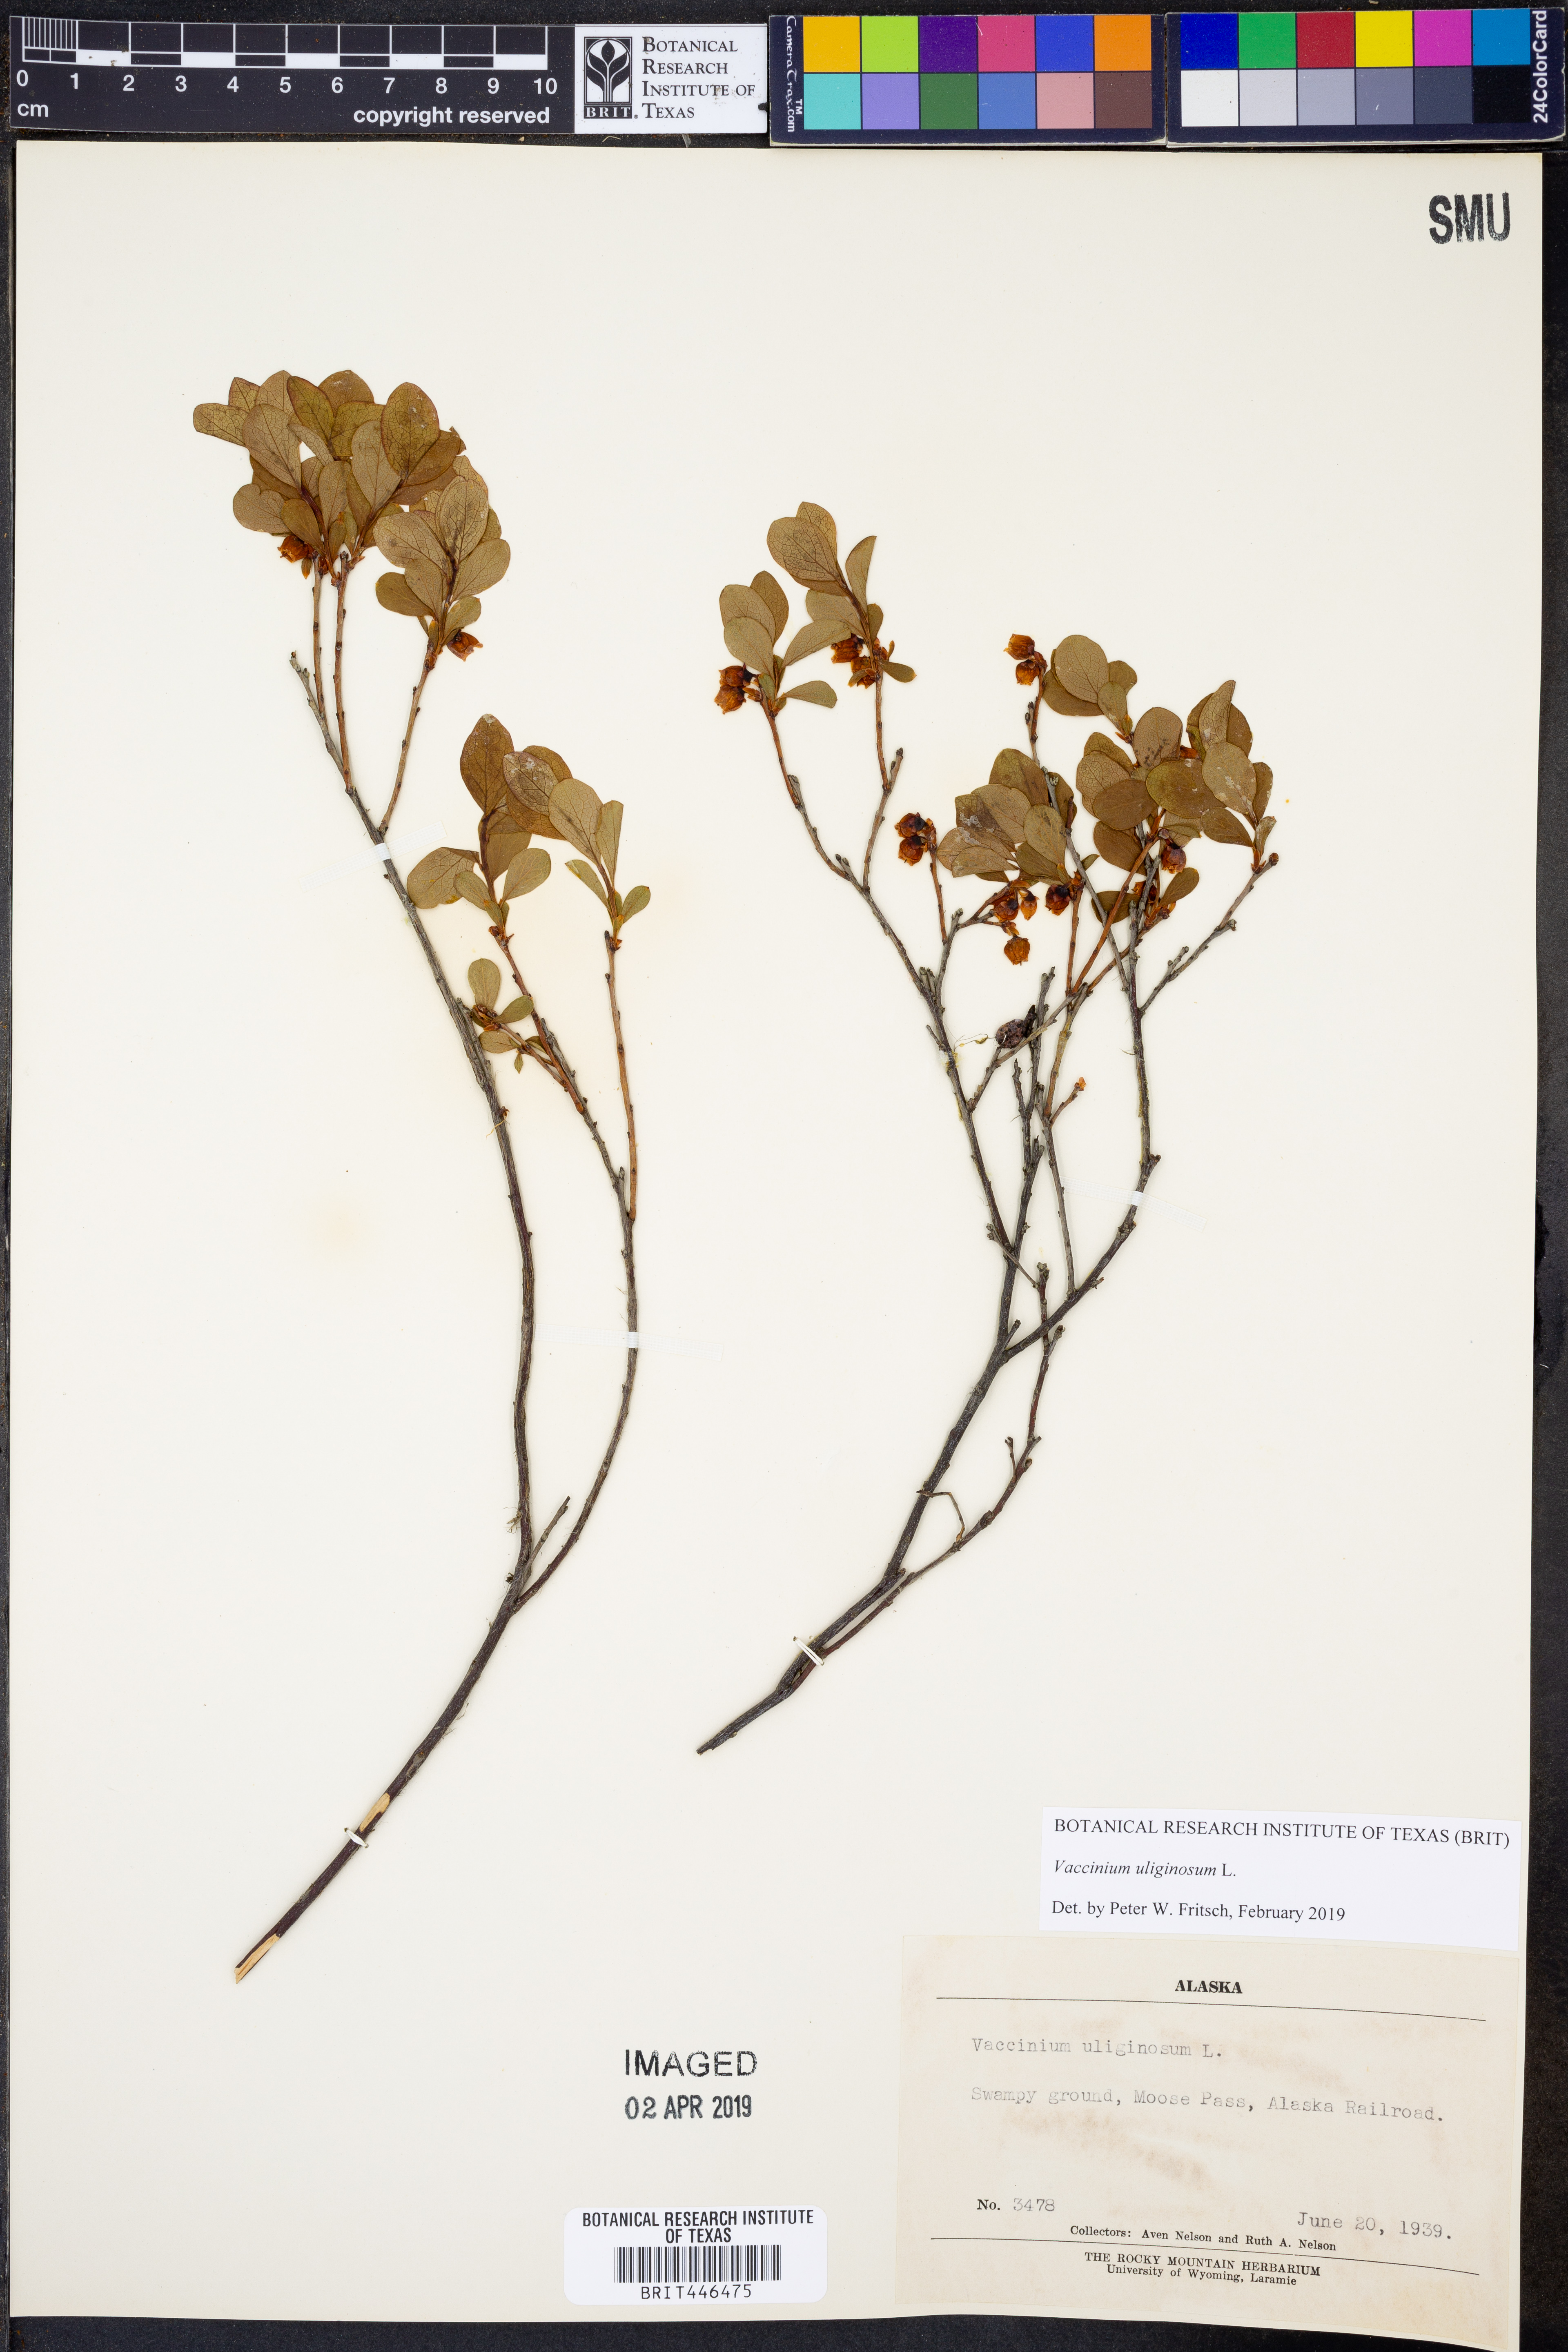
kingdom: Plantae
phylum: Tracheophyta
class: Magnoliopsida
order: Ericales
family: Ericaceae
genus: Vaccinium
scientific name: Vaccinium uliginosum
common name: Bog bilberry
